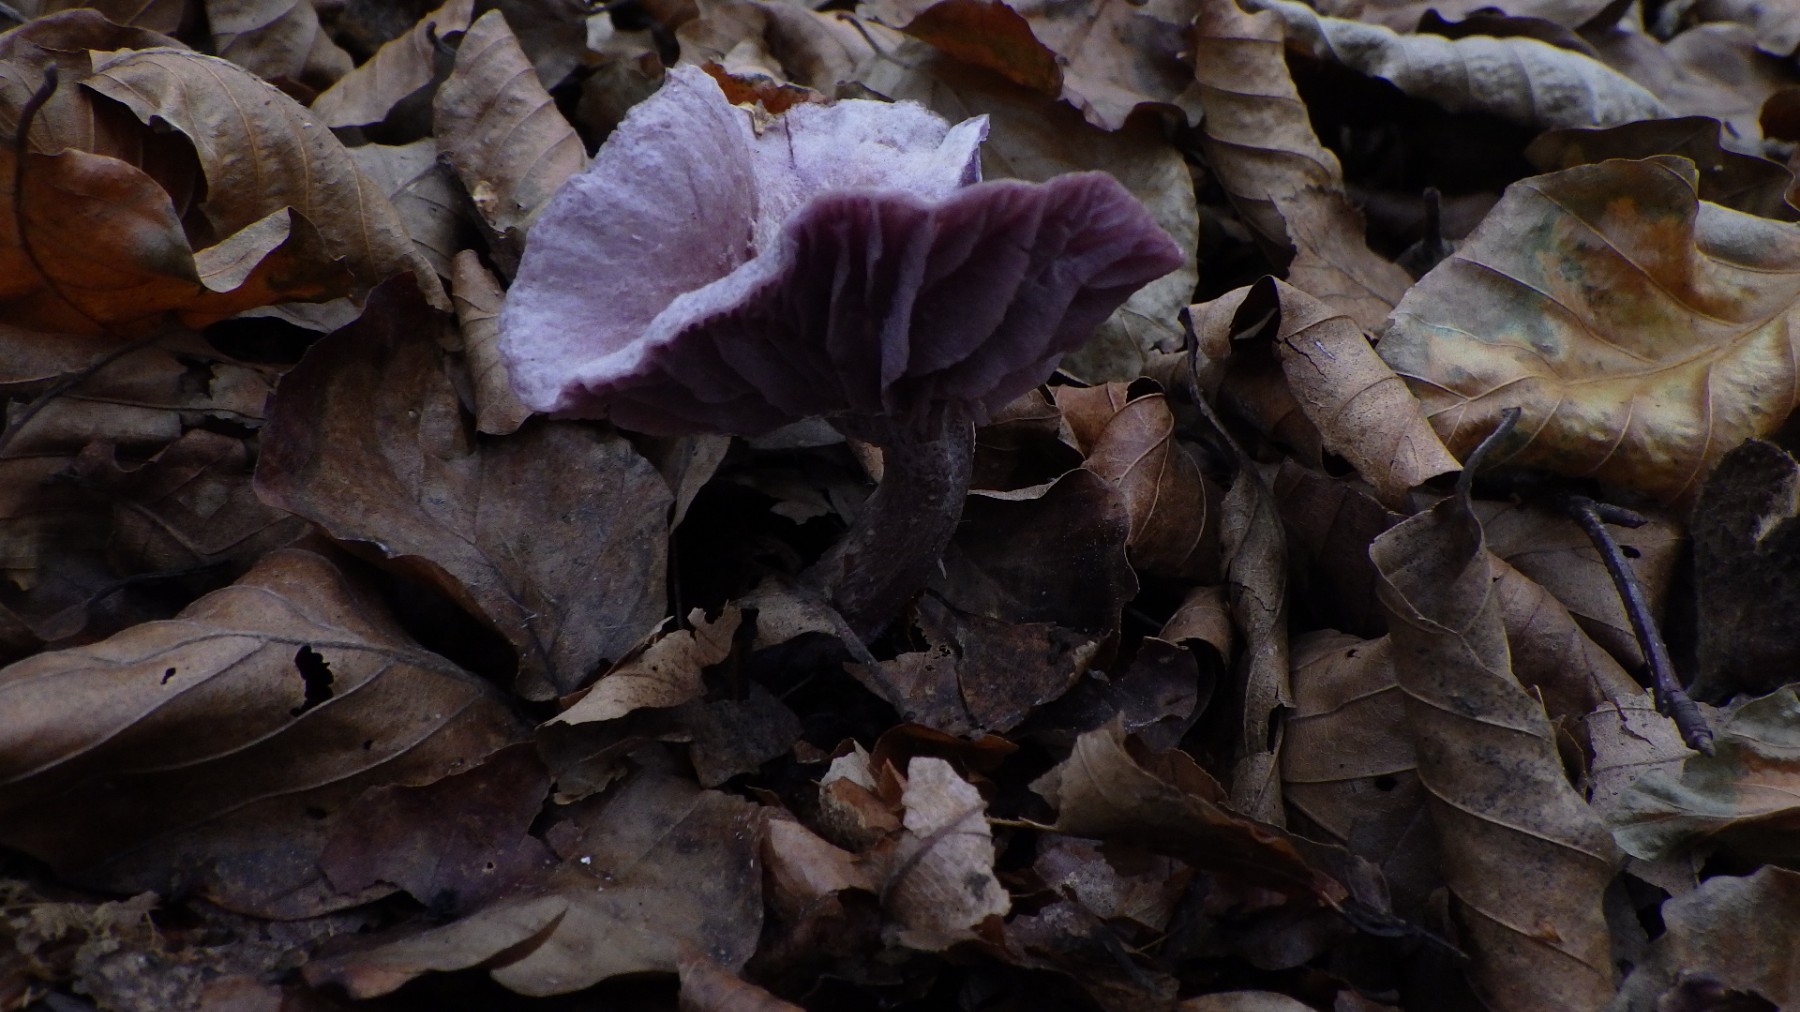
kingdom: Fungi
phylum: Basidiomycota
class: Agaricomycetes
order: Agaricales
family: Hydnangiaceae
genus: Laccaria
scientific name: Laccaria amethystina
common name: violet ametysthat
